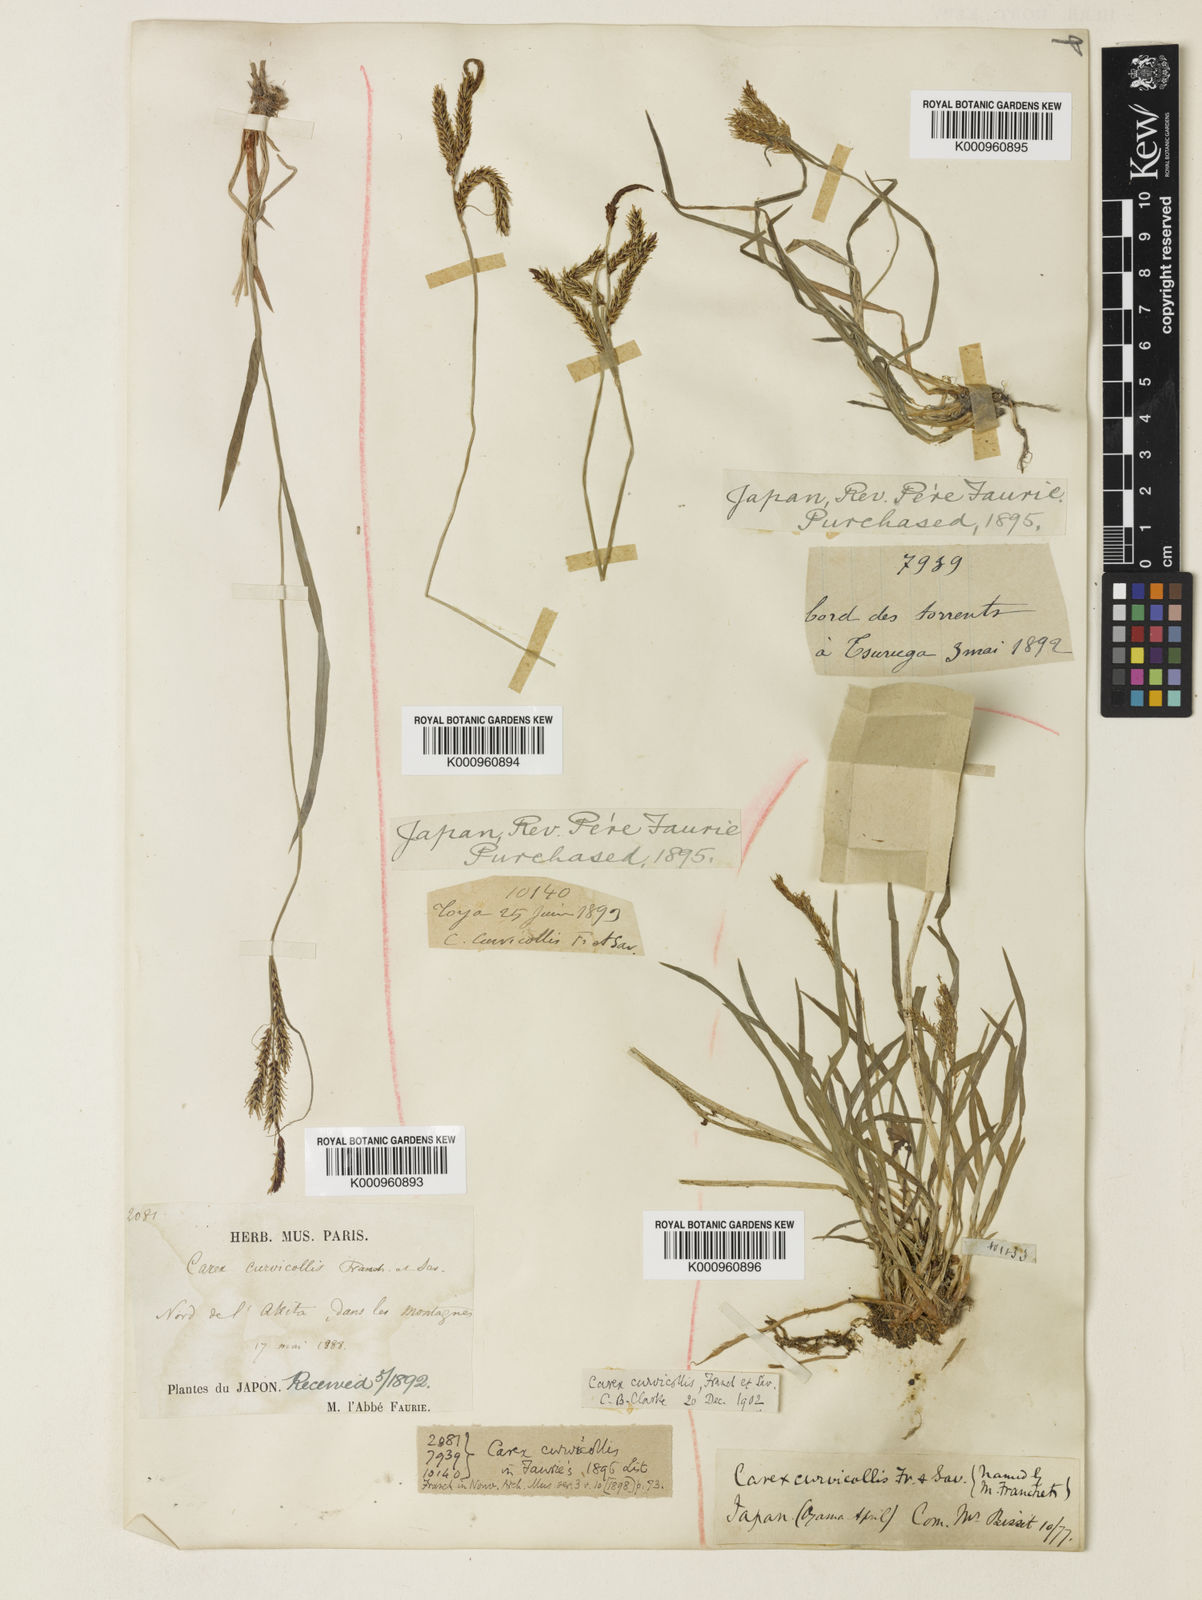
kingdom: Plantae
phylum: Tracheophyta
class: Liliopsida
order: Poales
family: Cyperaceae
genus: Carex
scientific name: Carex curvicollis
